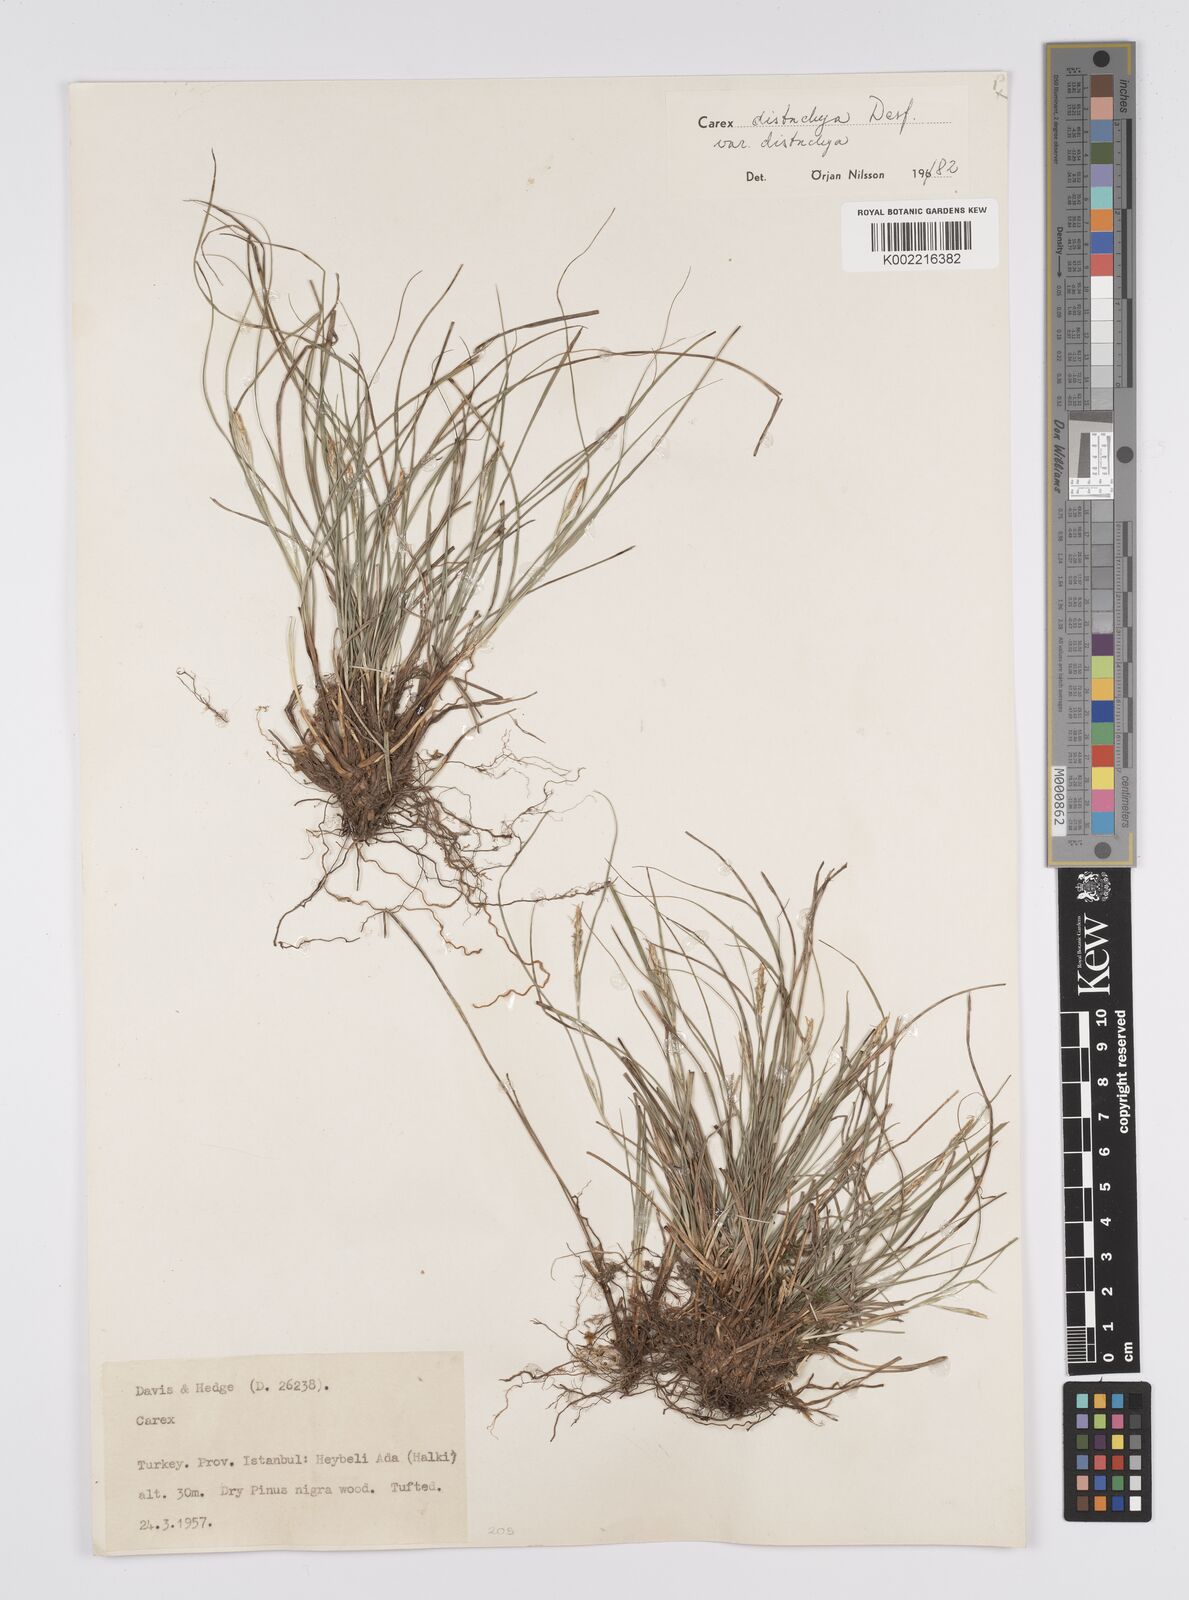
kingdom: Plantae
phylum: Tracheophyta
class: Liliopsida
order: Poales
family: Cyperaceae
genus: Carex
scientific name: Carex distachya
